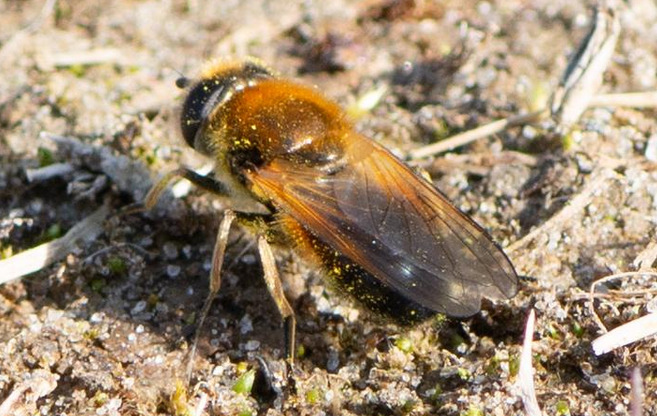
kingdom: Animalia
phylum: Arthropoda
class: Insecta
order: Diptera
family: Syrphidae
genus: Cheilosia
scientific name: Cheilosia corydon
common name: Ræverød urtesvirreflue
